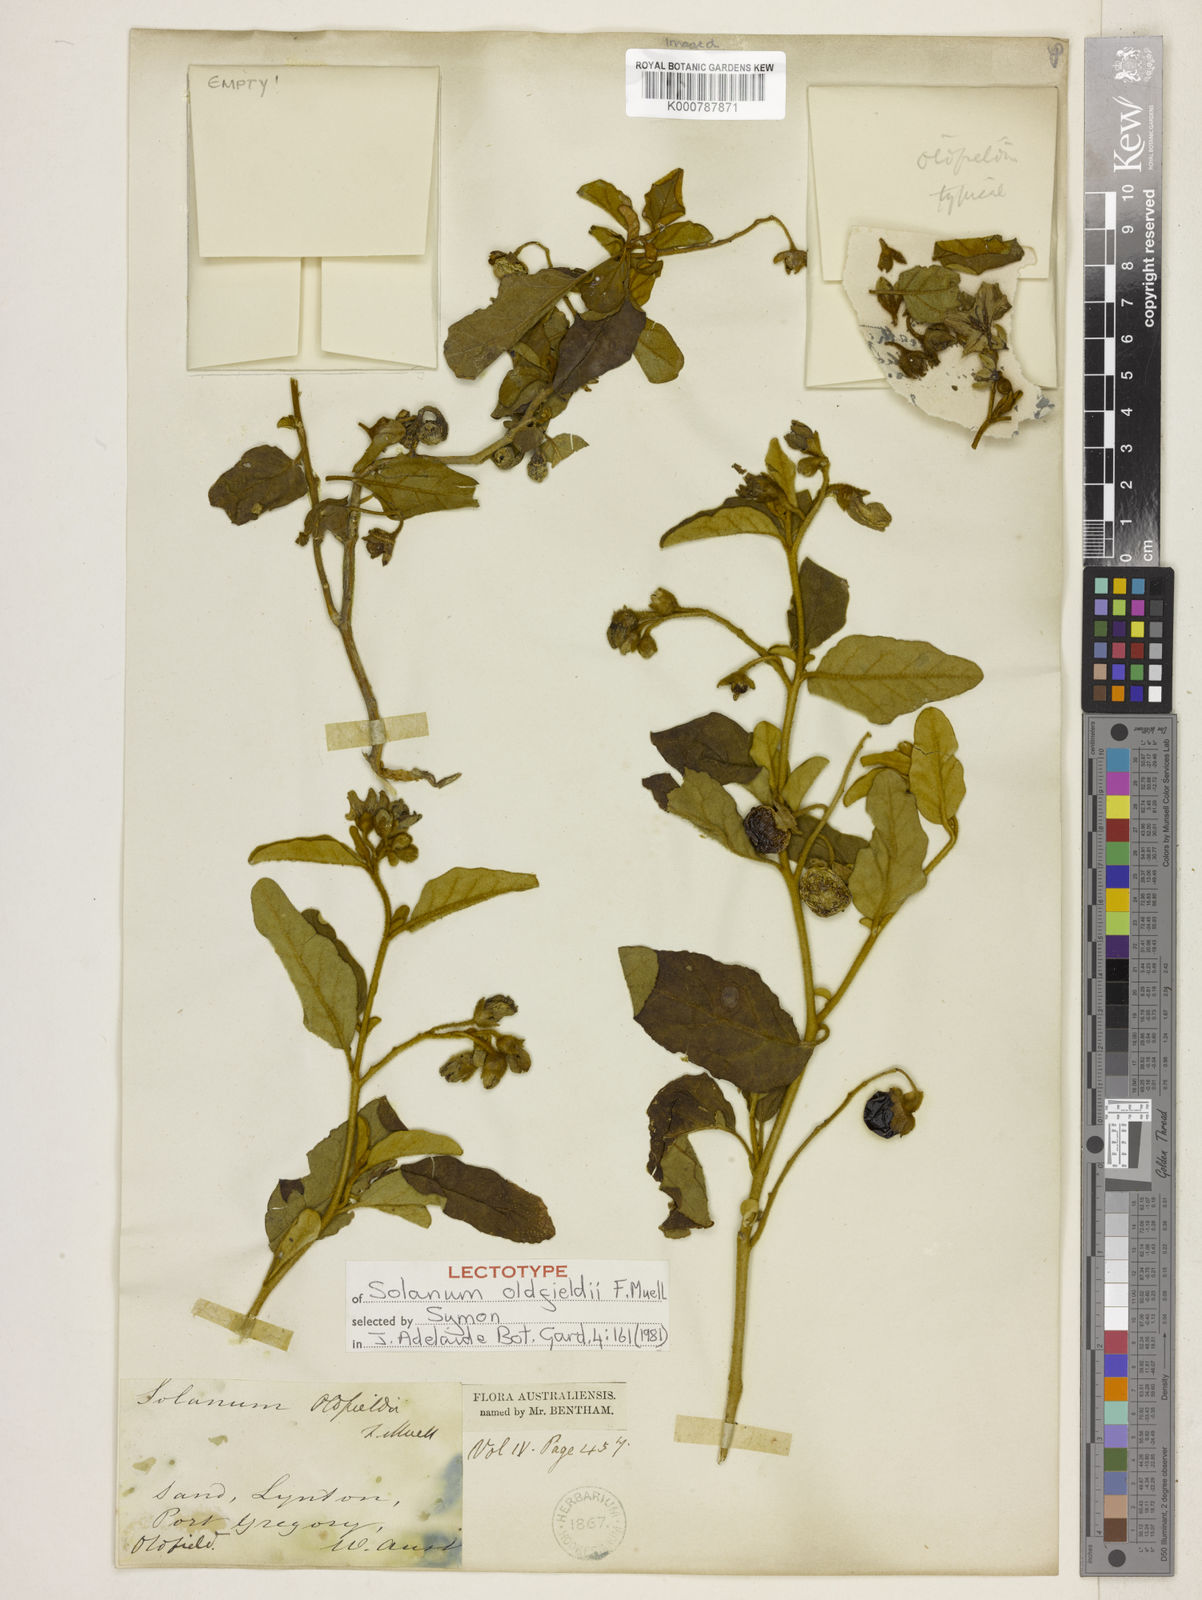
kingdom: Plantae
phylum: Tracheophyta
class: Magnoliopsida
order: Solanales
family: Solanaceae
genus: Solanum
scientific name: Solanum oldfieldii
